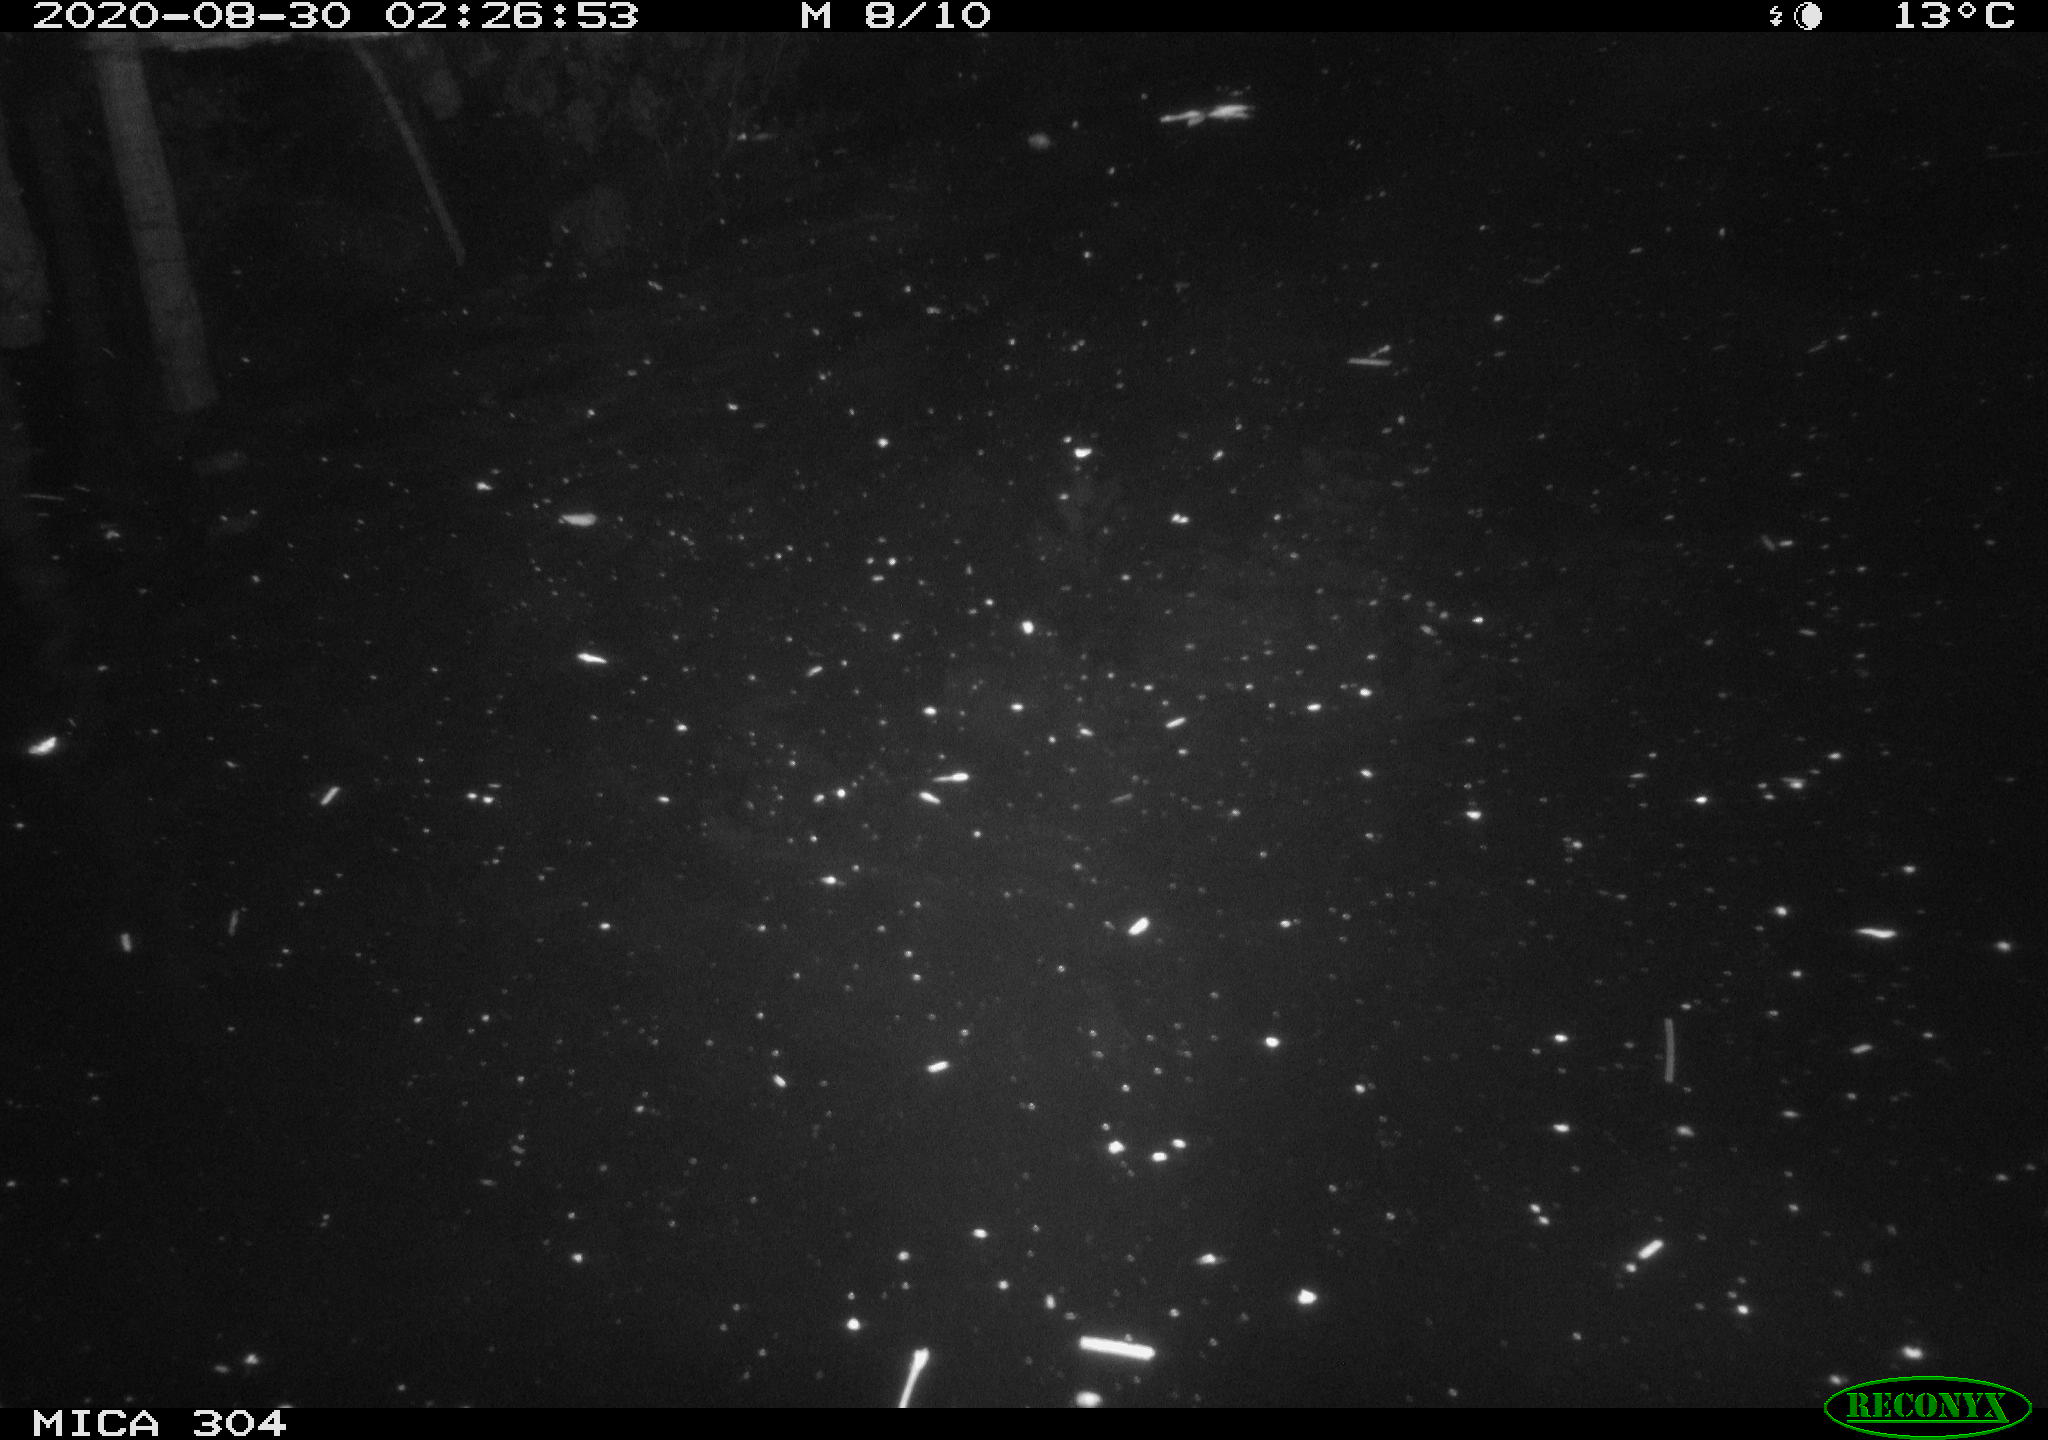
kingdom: Animalia
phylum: Chordata
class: Mammalia
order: Rodentia
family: Cricetidae
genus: Ondatra
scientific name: Ondatra zibethicus
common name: Muskrat
